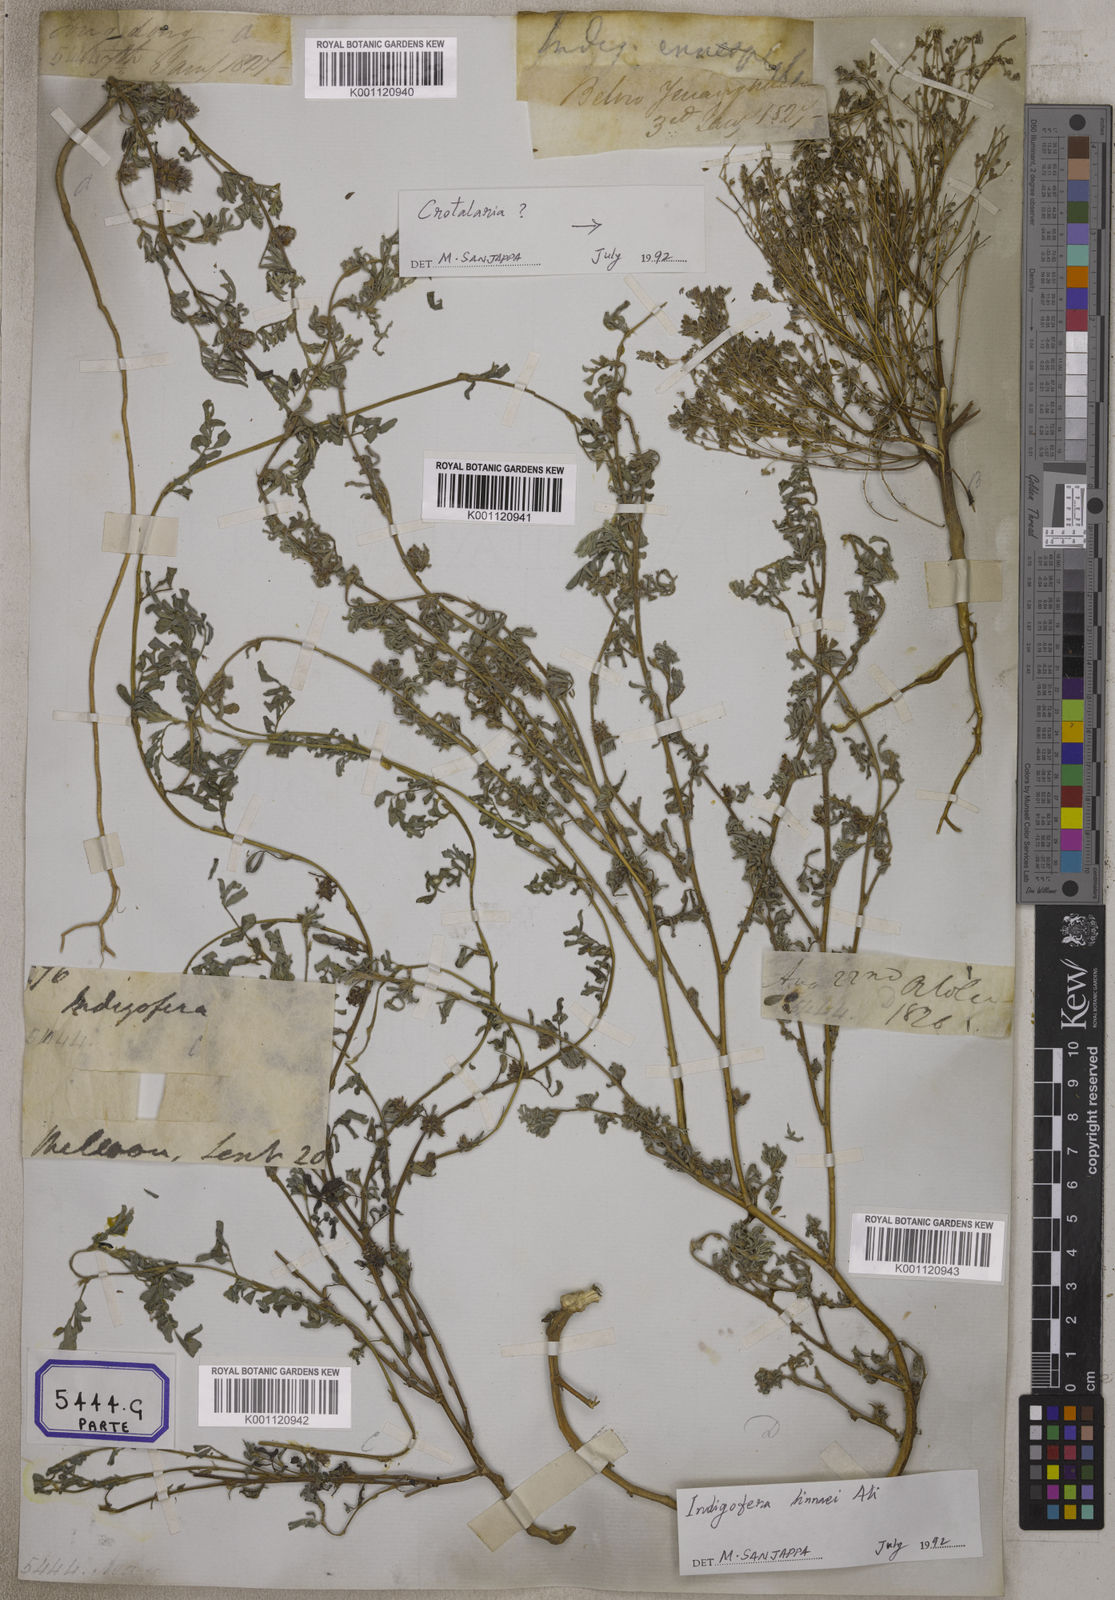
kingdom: Plantae
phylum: Tracheophyta
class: Magnoliopsida
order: Fabales
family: Fabaceae
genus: Indigofera
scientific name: Indigofera linnaei
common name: Nine-leaf indigo
